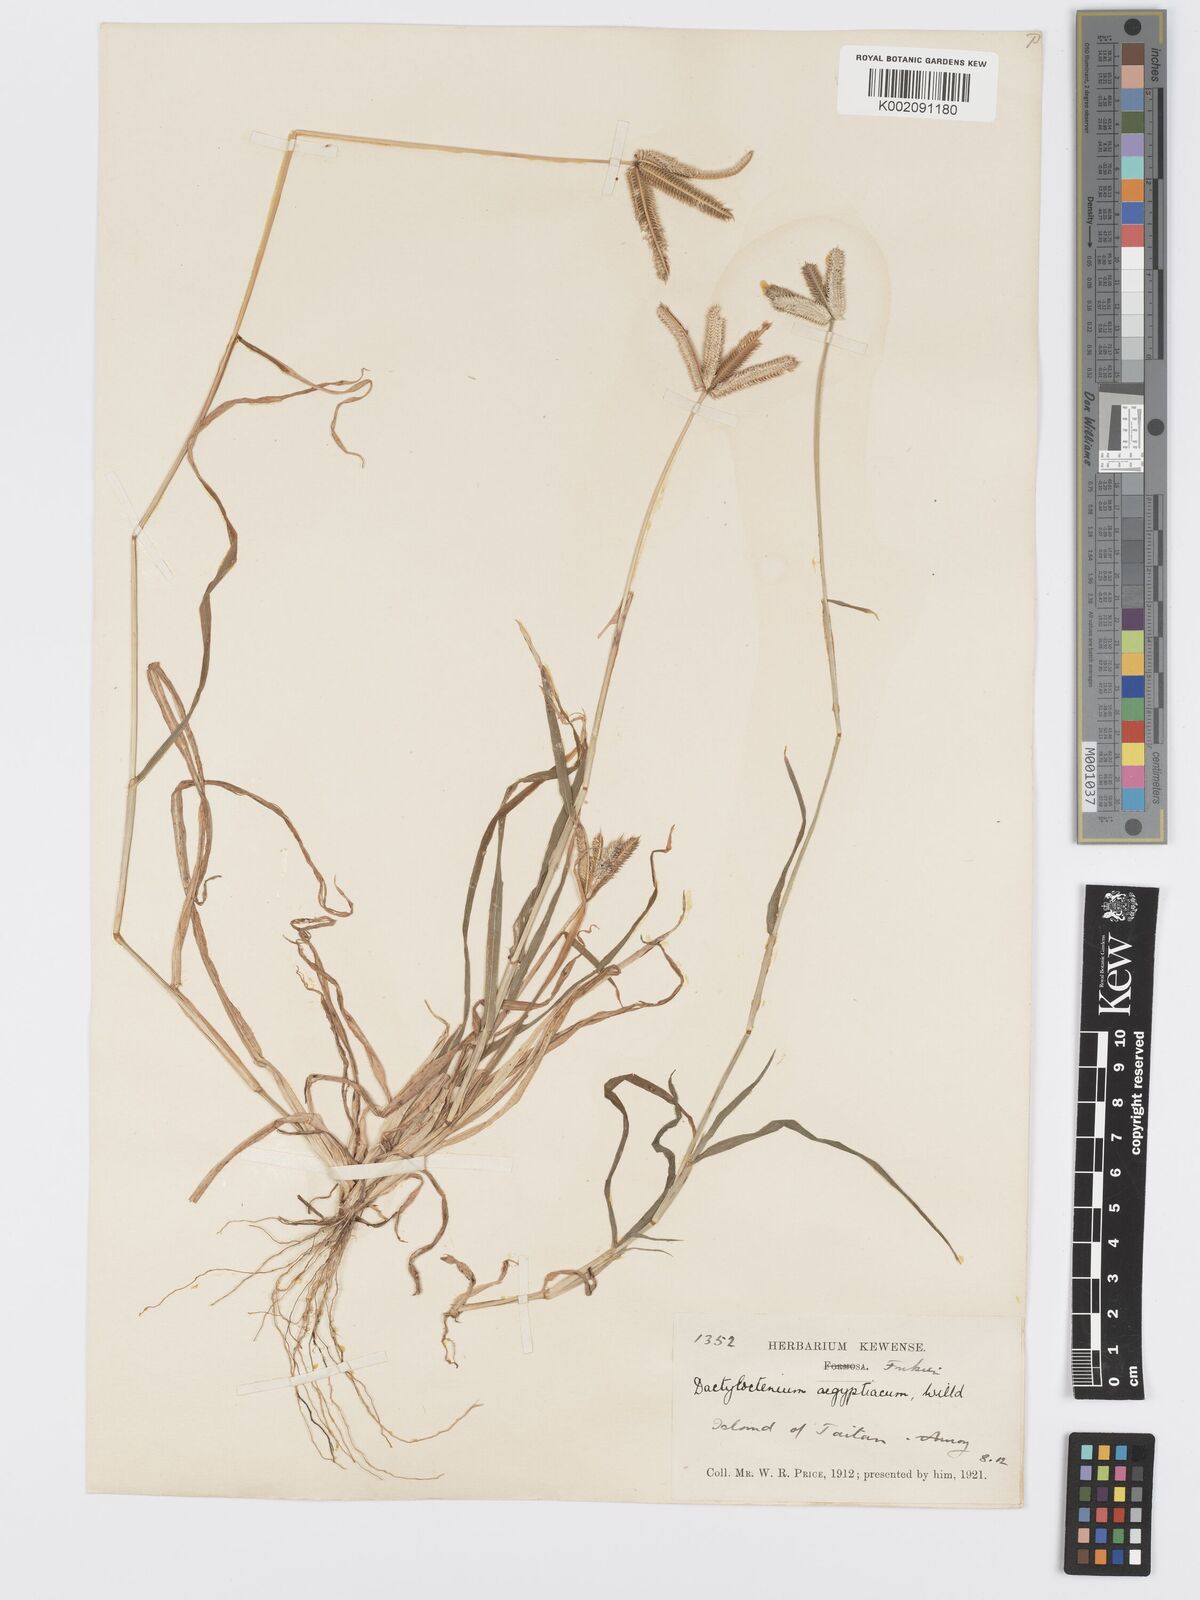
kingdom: Plantae
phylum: Tracheophyta
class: Liliopsida
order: Poales
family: Poaceae
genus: Dactyloctenium
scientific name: Dactyloctenium aegyptium
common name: Egyptian grass
